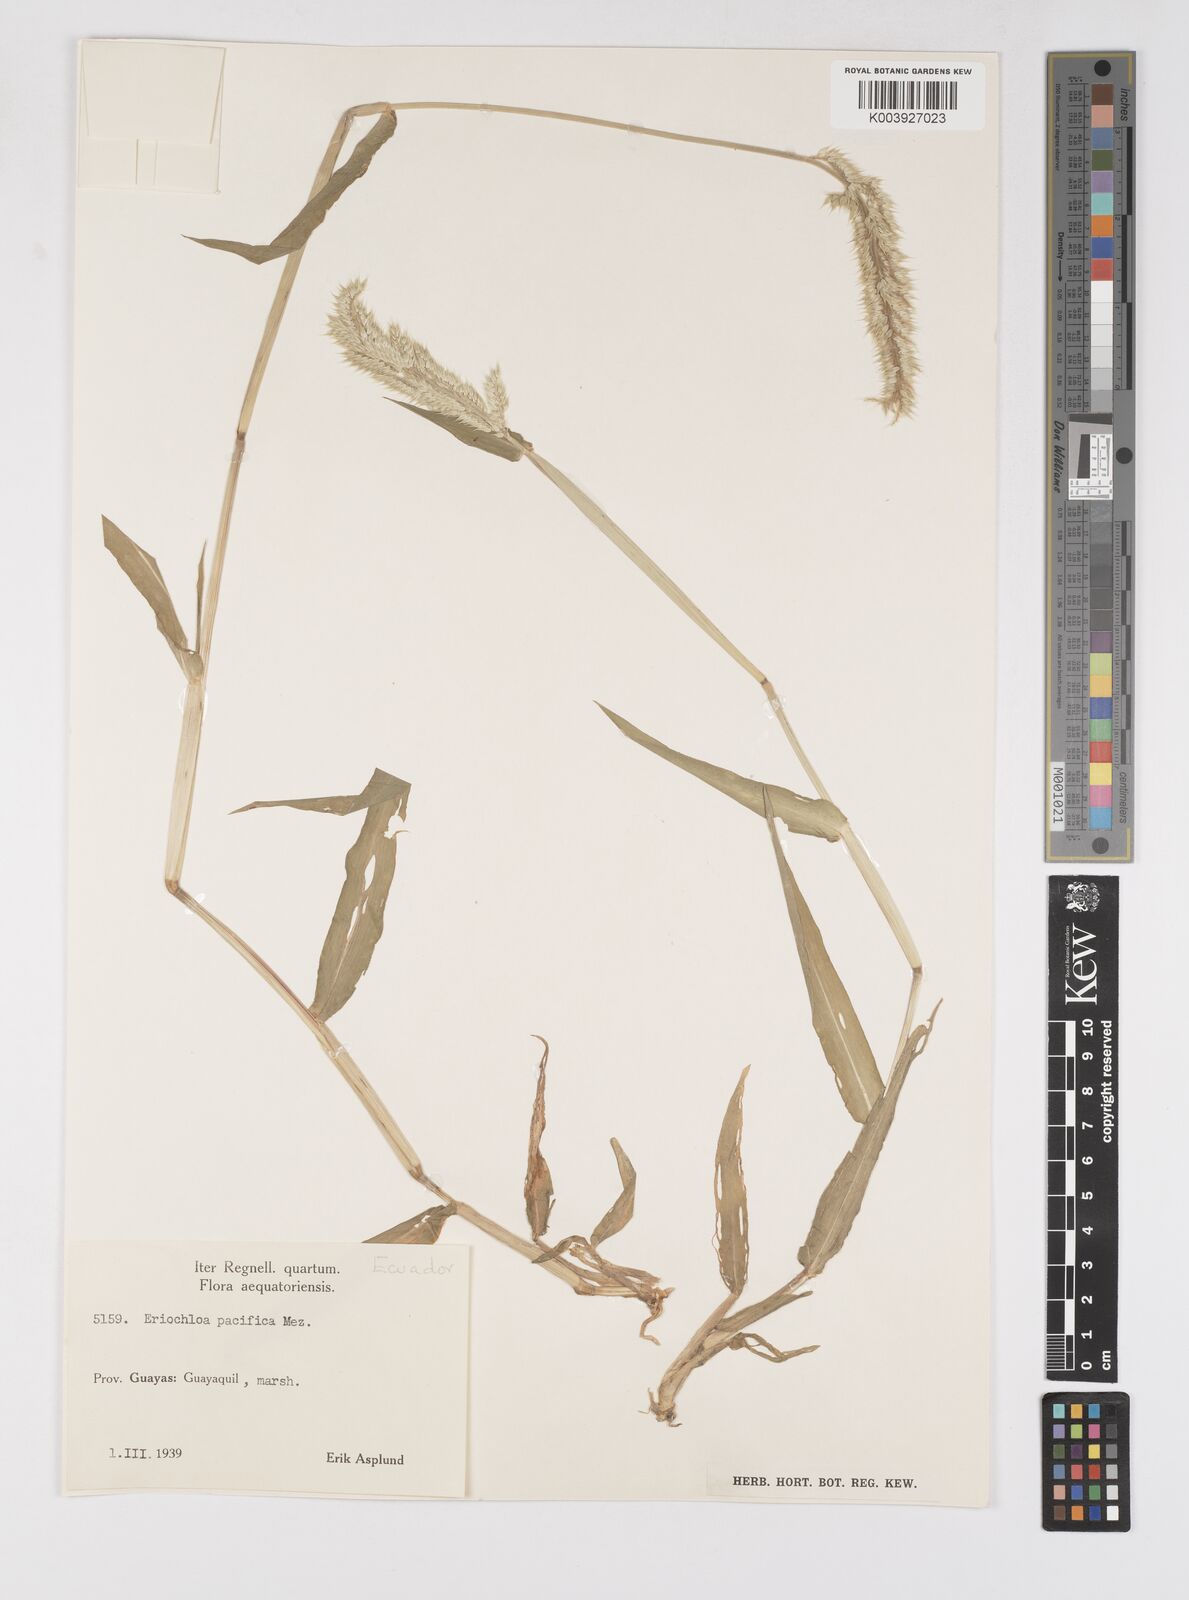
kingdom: Plantae
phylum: Tracheophyta
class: Liliopsida
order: Poales
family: Poaceae
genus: Eriochloa
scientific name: Eriochloa pacifica
